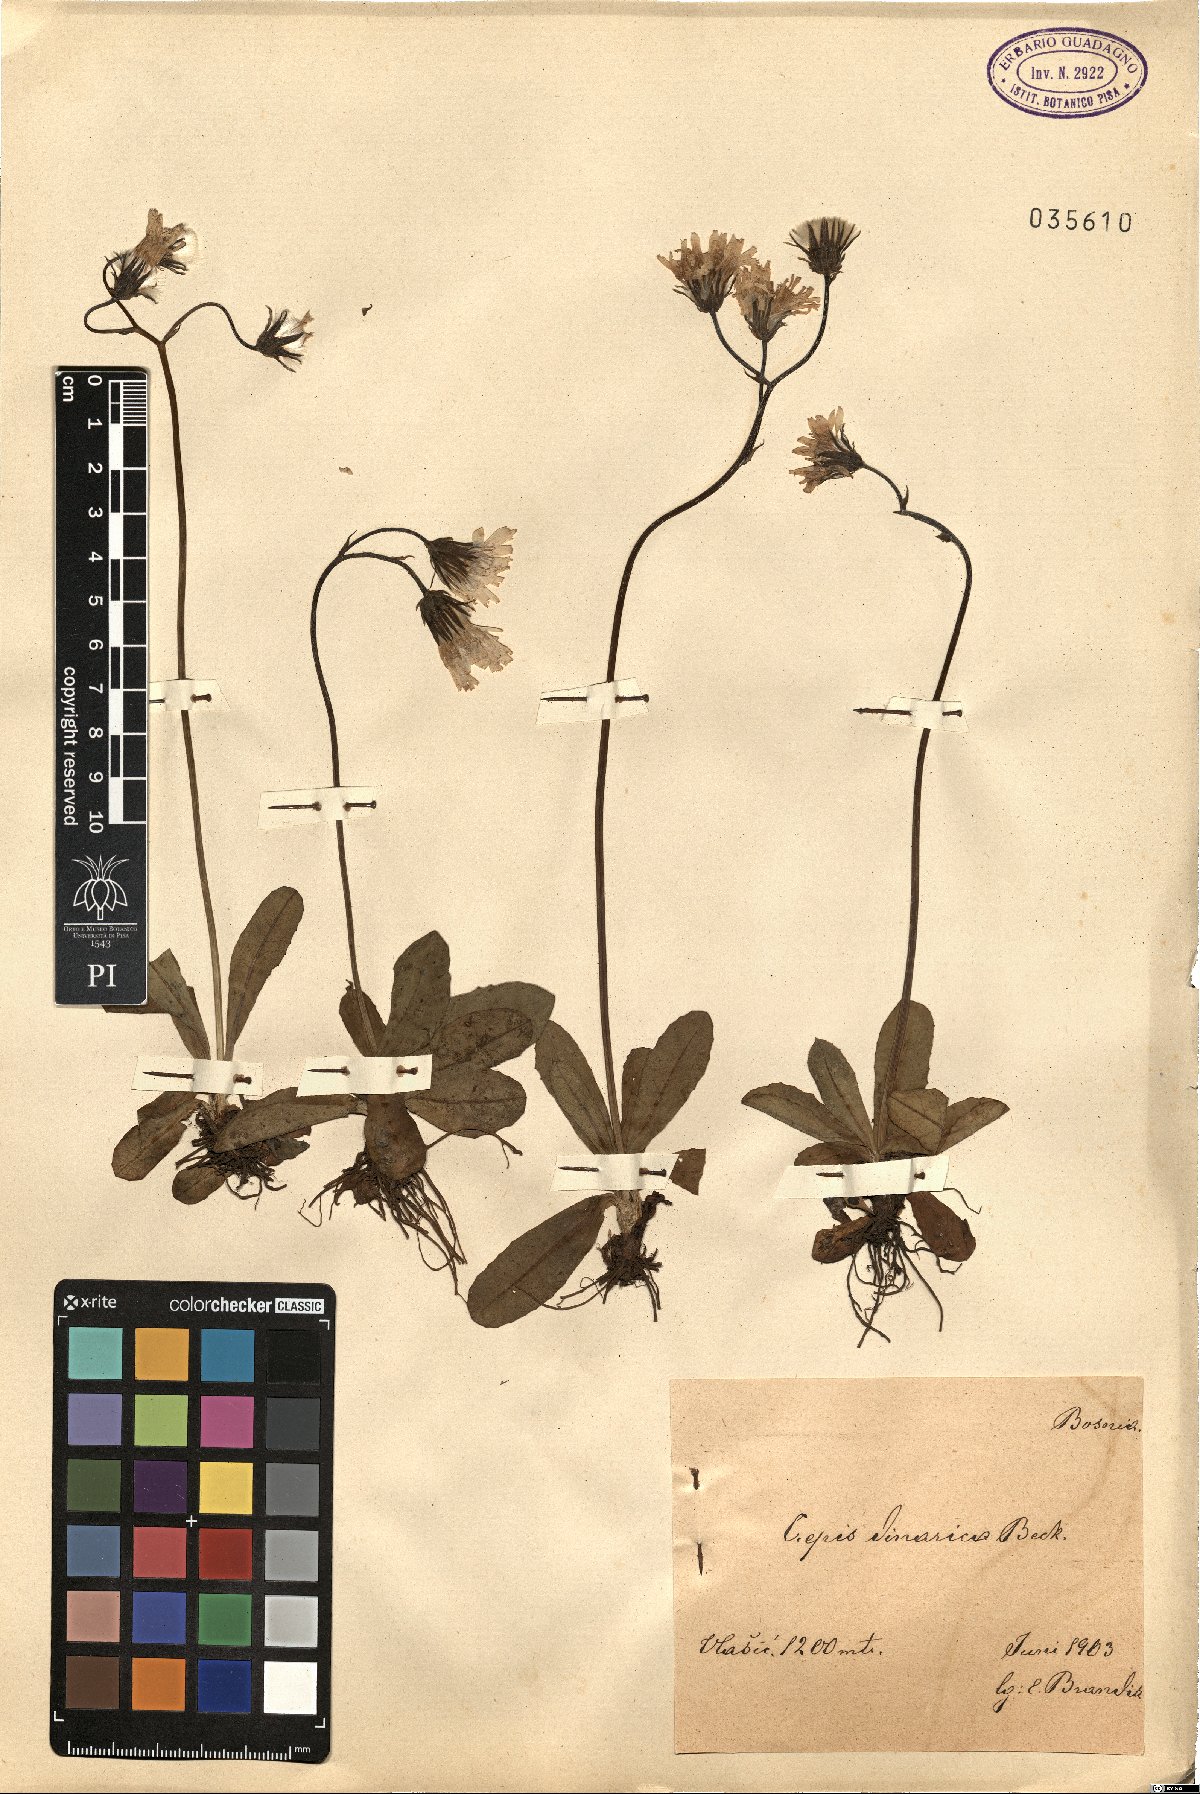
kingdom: Plantae
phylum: Tracheophyta
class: Magnoliopsida
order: Asterales
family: Asteraceae
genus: Crepis
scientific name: Crepis froelichiana
